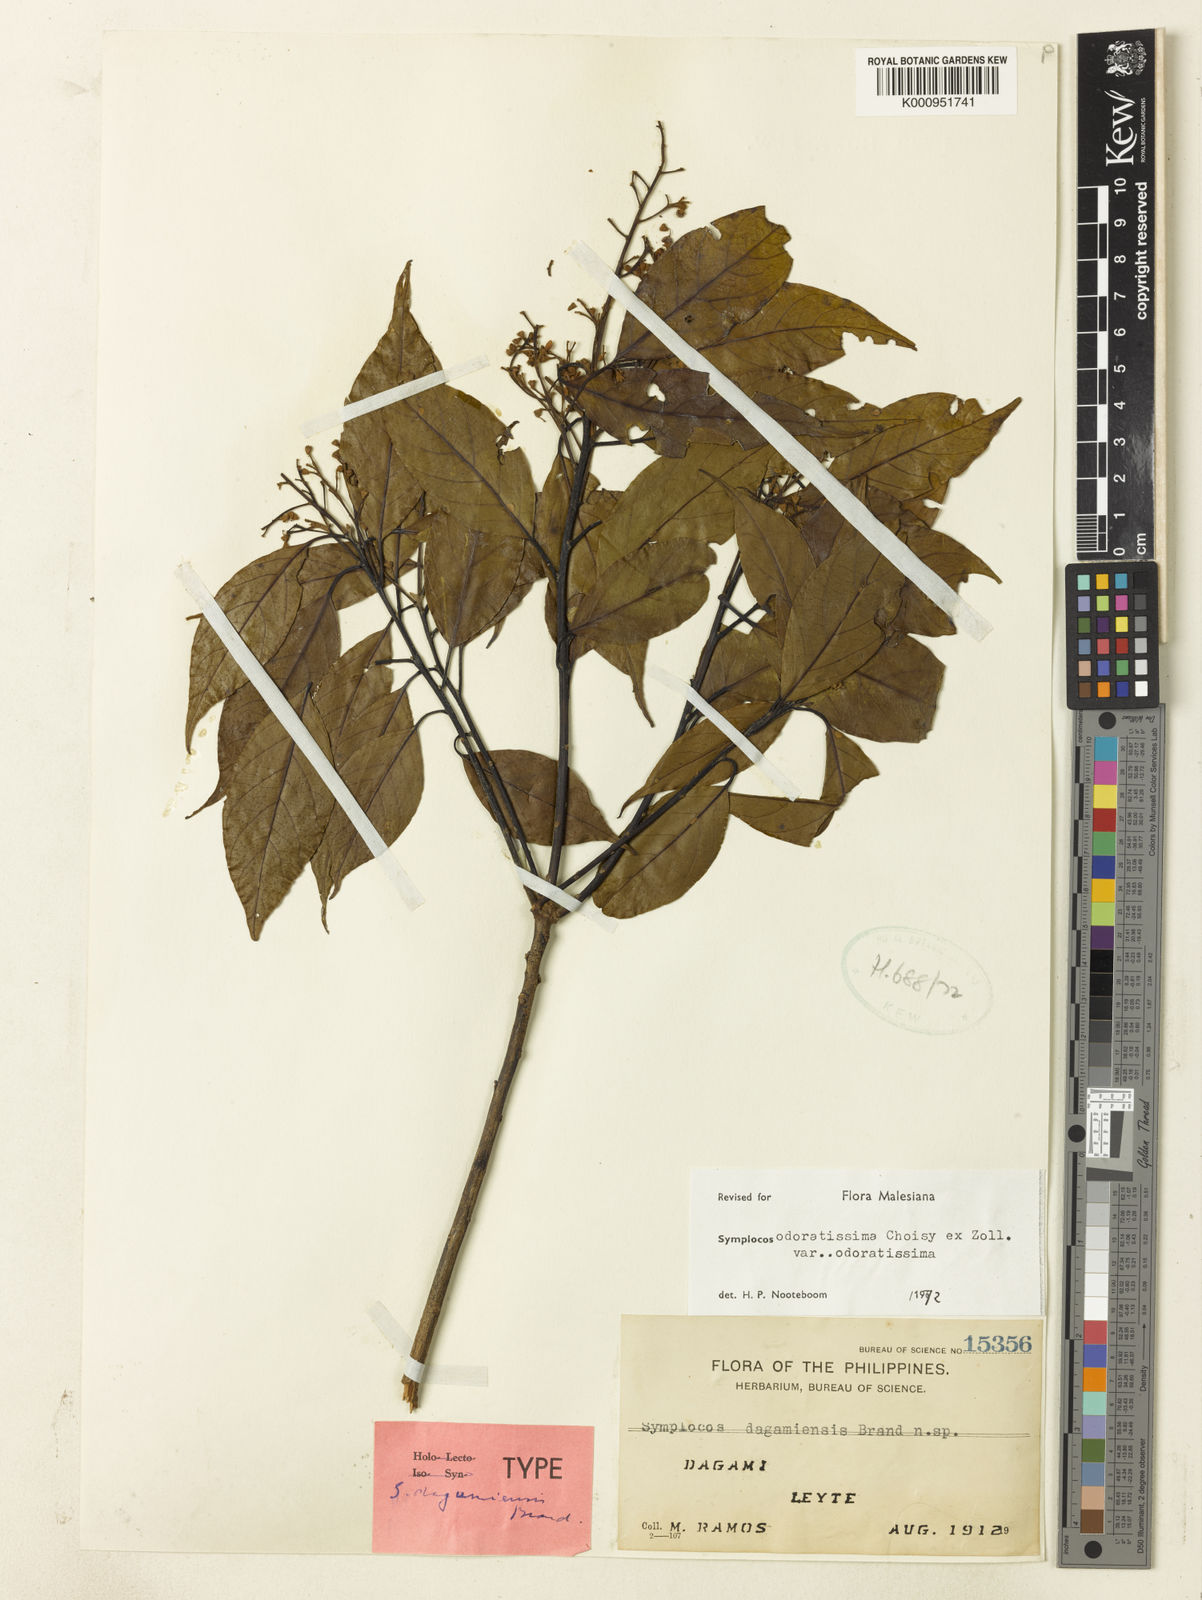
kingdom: Plantae
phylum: Tracheophyta
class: Magnoliopsida
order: Ericales
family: Symplocaceae
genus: Symplocos
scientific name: Symplocos odoratissima
